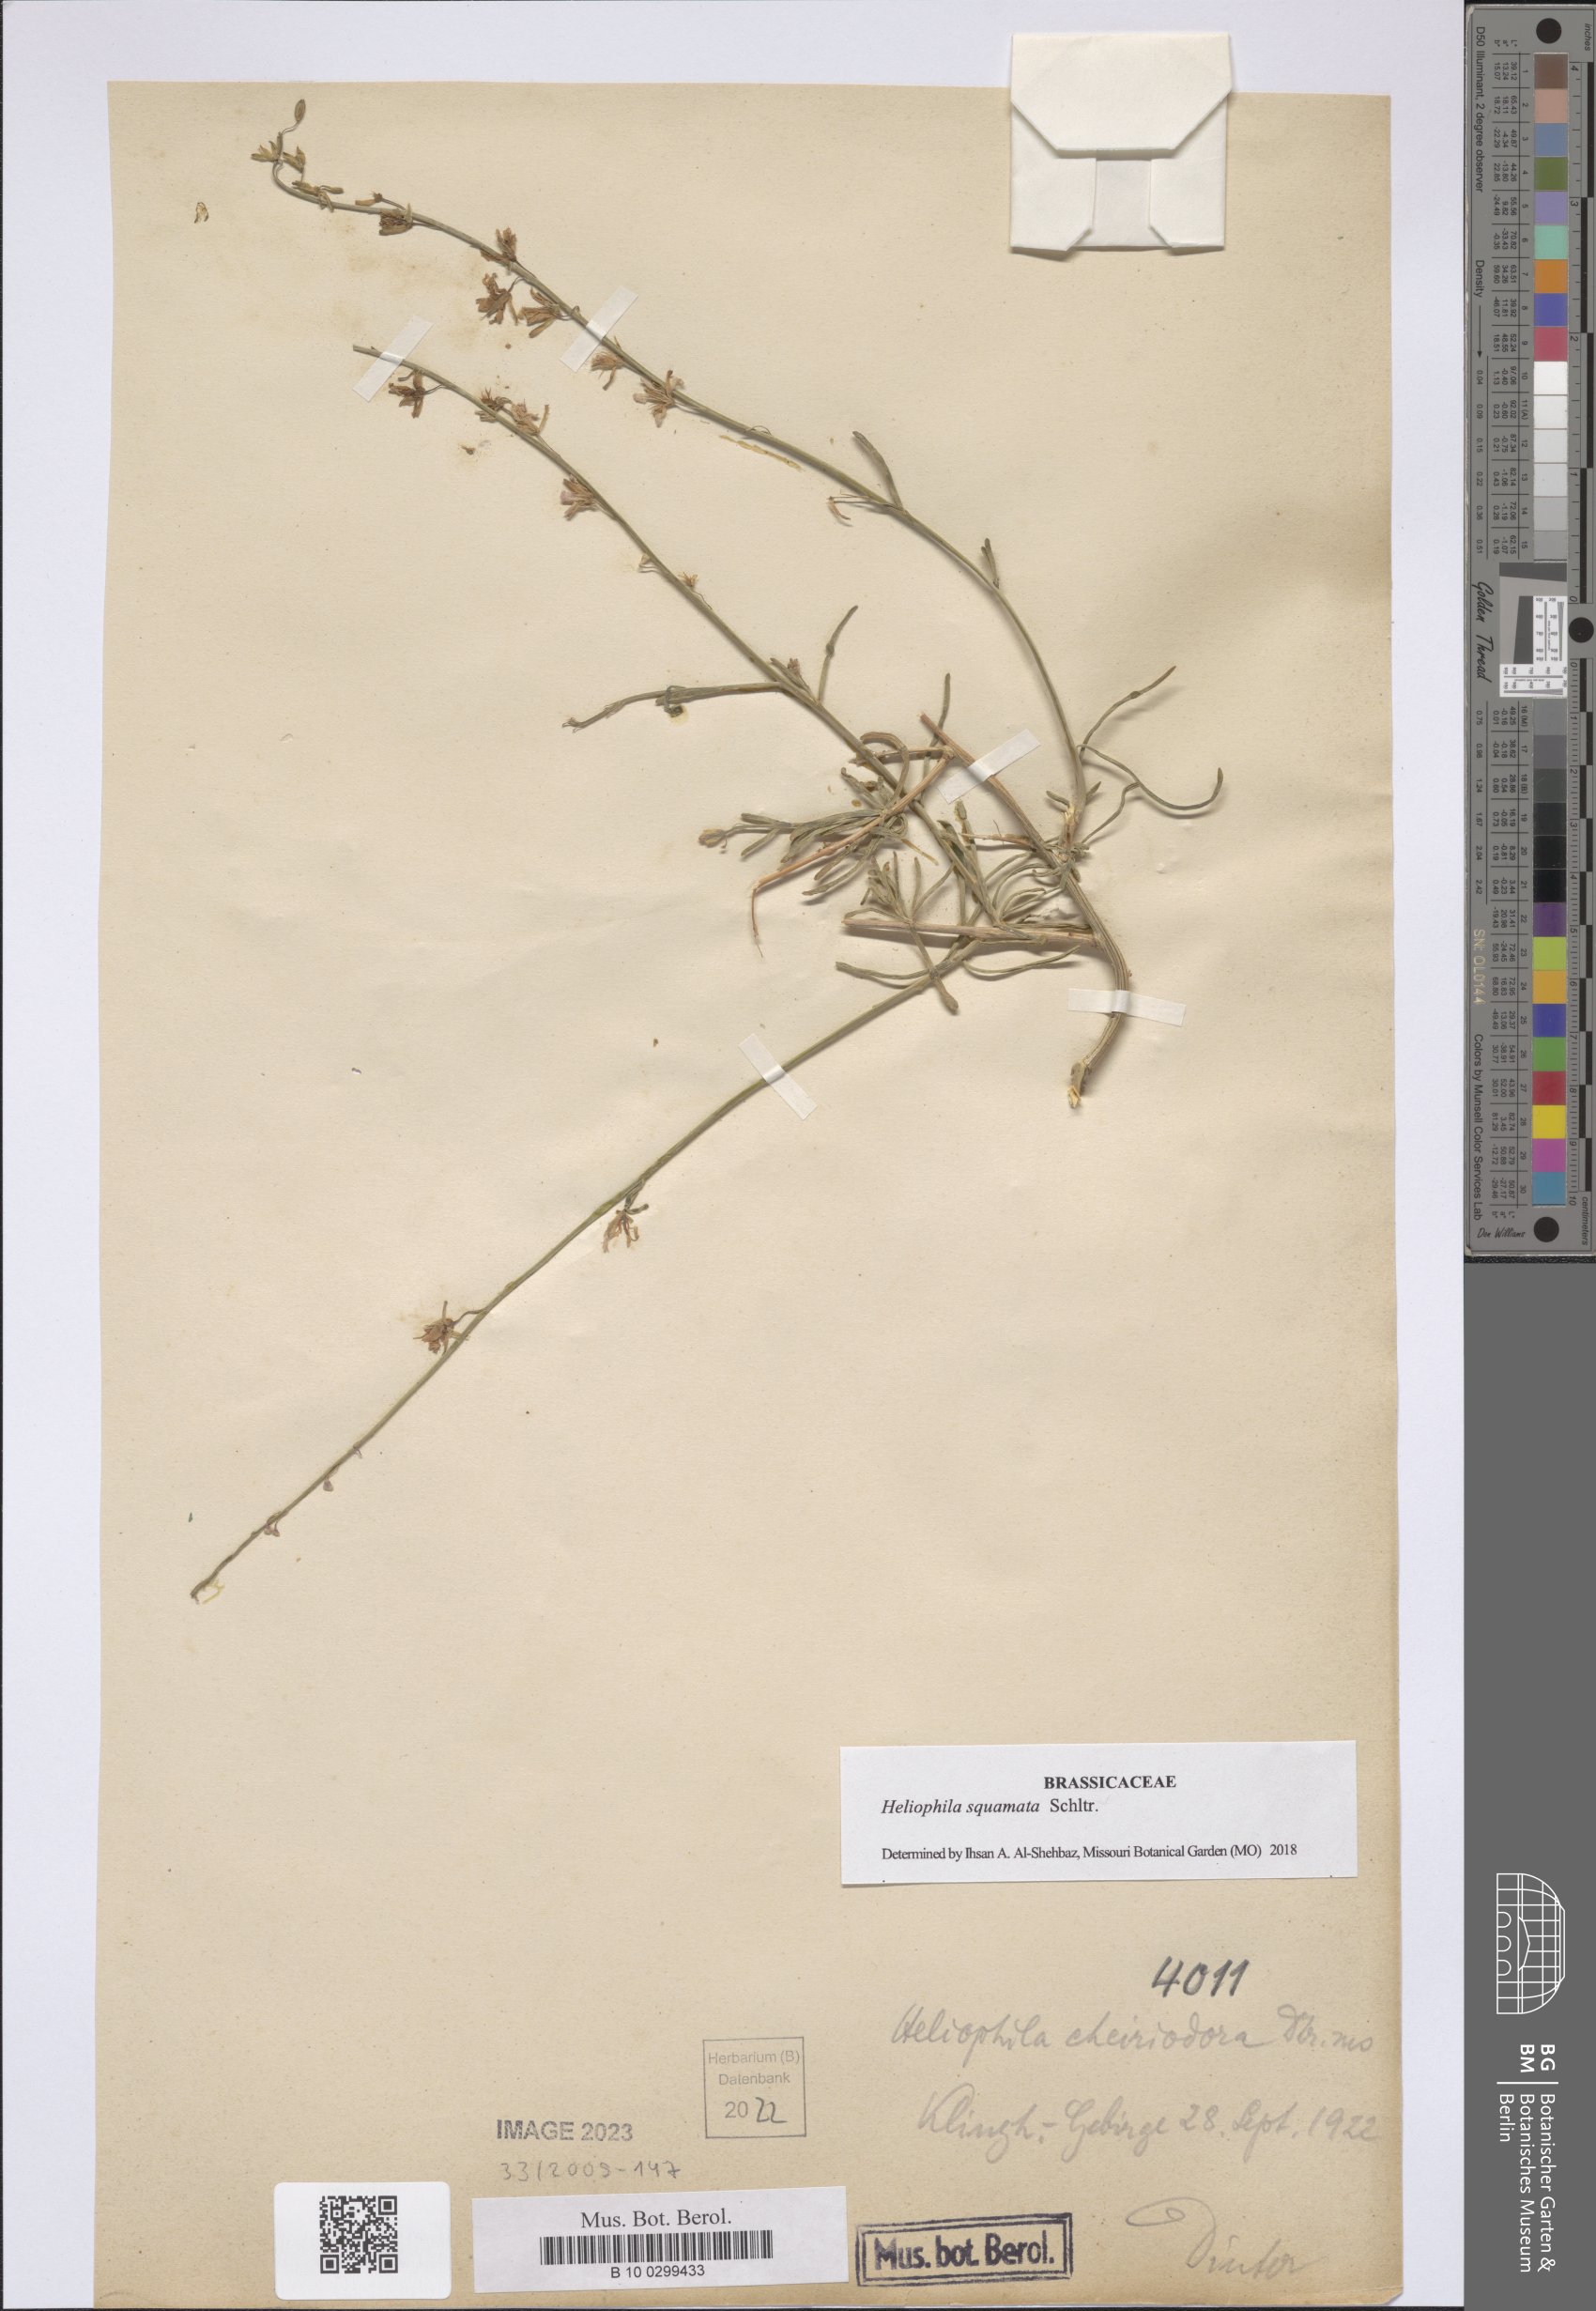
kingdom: Plantae
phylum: Tracheophyta
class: Magnoliopsida
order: Brassicales
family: Brassicaceae
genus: Heliophila
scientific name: Heliophila cornuta
